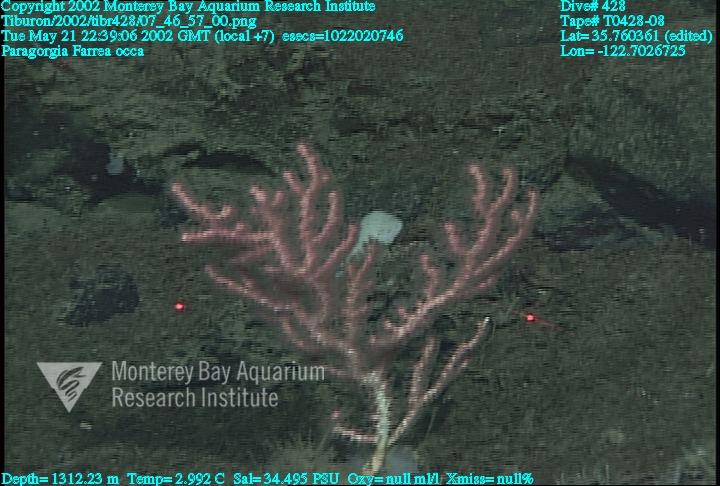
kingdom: Animalia
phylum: Porifera
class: Hexactinellida
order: Sceptrulophora
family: Farreidae
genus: Farrea
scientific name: Farrea occa
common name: Reversed glass sponge
